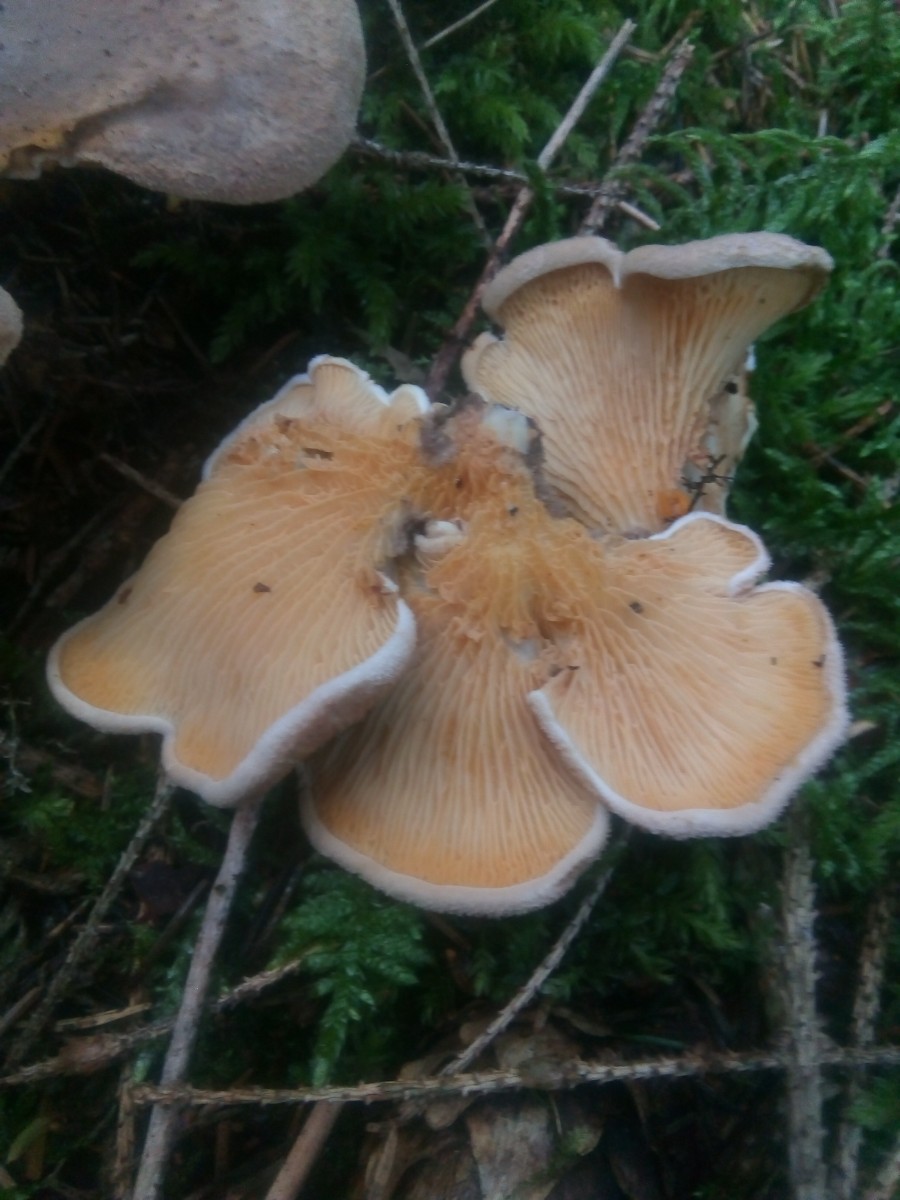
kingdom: Fungi
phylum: Basidiomycota
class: Agaricomycetes
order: Boletales
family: Tapinellaceae
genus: Tapinella
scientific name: Tapinella panuoides
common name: tømmer-viftesvamp
